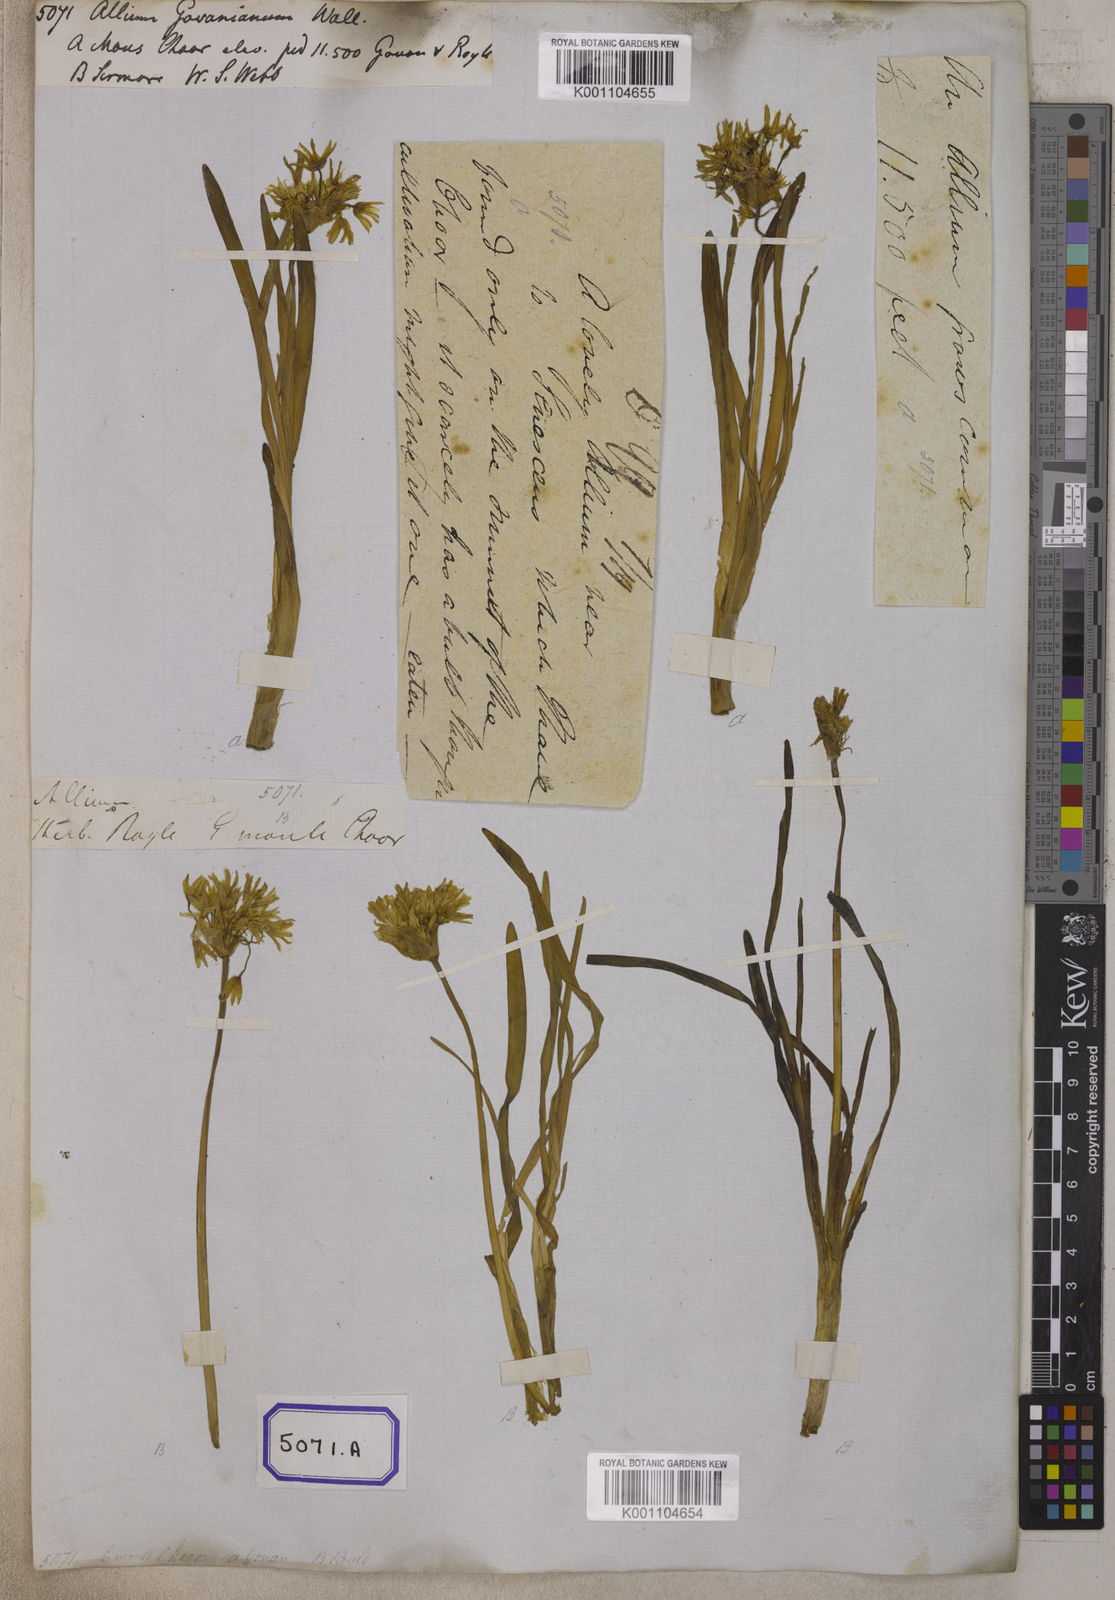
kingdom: Plantae
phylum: Tracheophyta
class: Liliopsida
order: Asparagales
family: Amaryllidaceae
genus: Allium
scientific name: Allium
